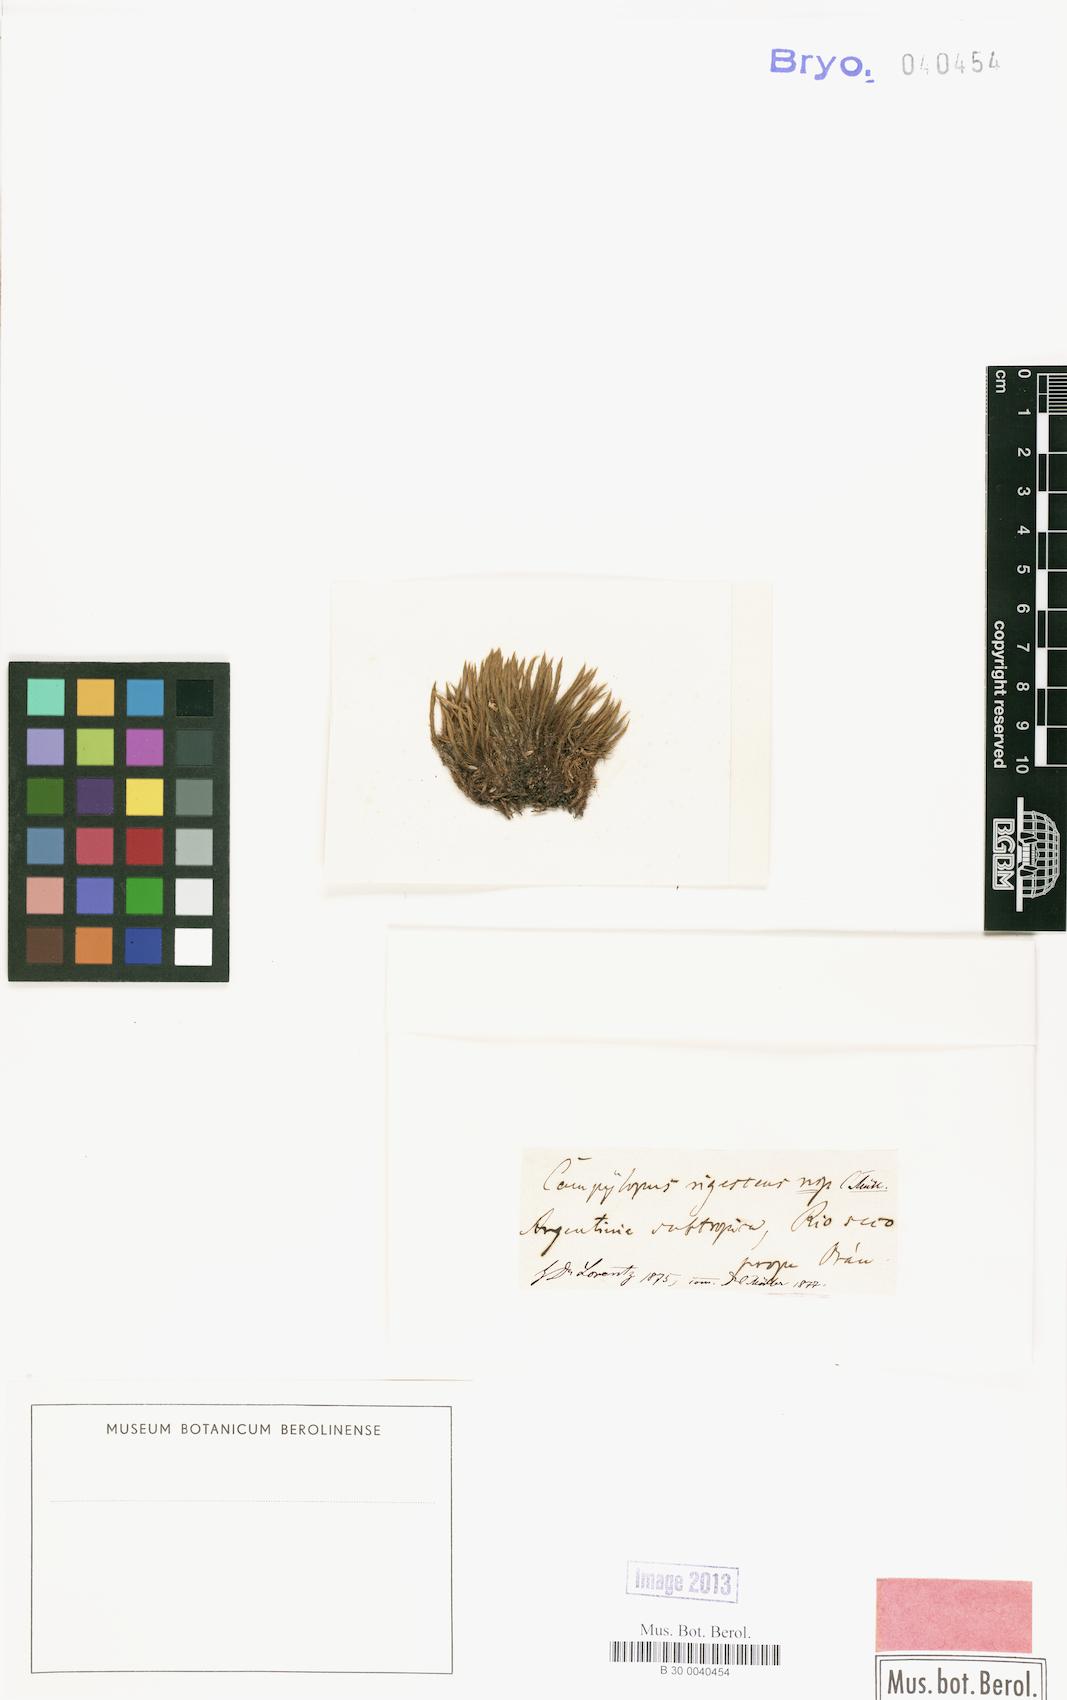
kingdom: Plantae
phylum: Bryophyta
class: Bryopsida
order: Dicranales
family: Dicranaceae
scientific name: Dicranaceae
